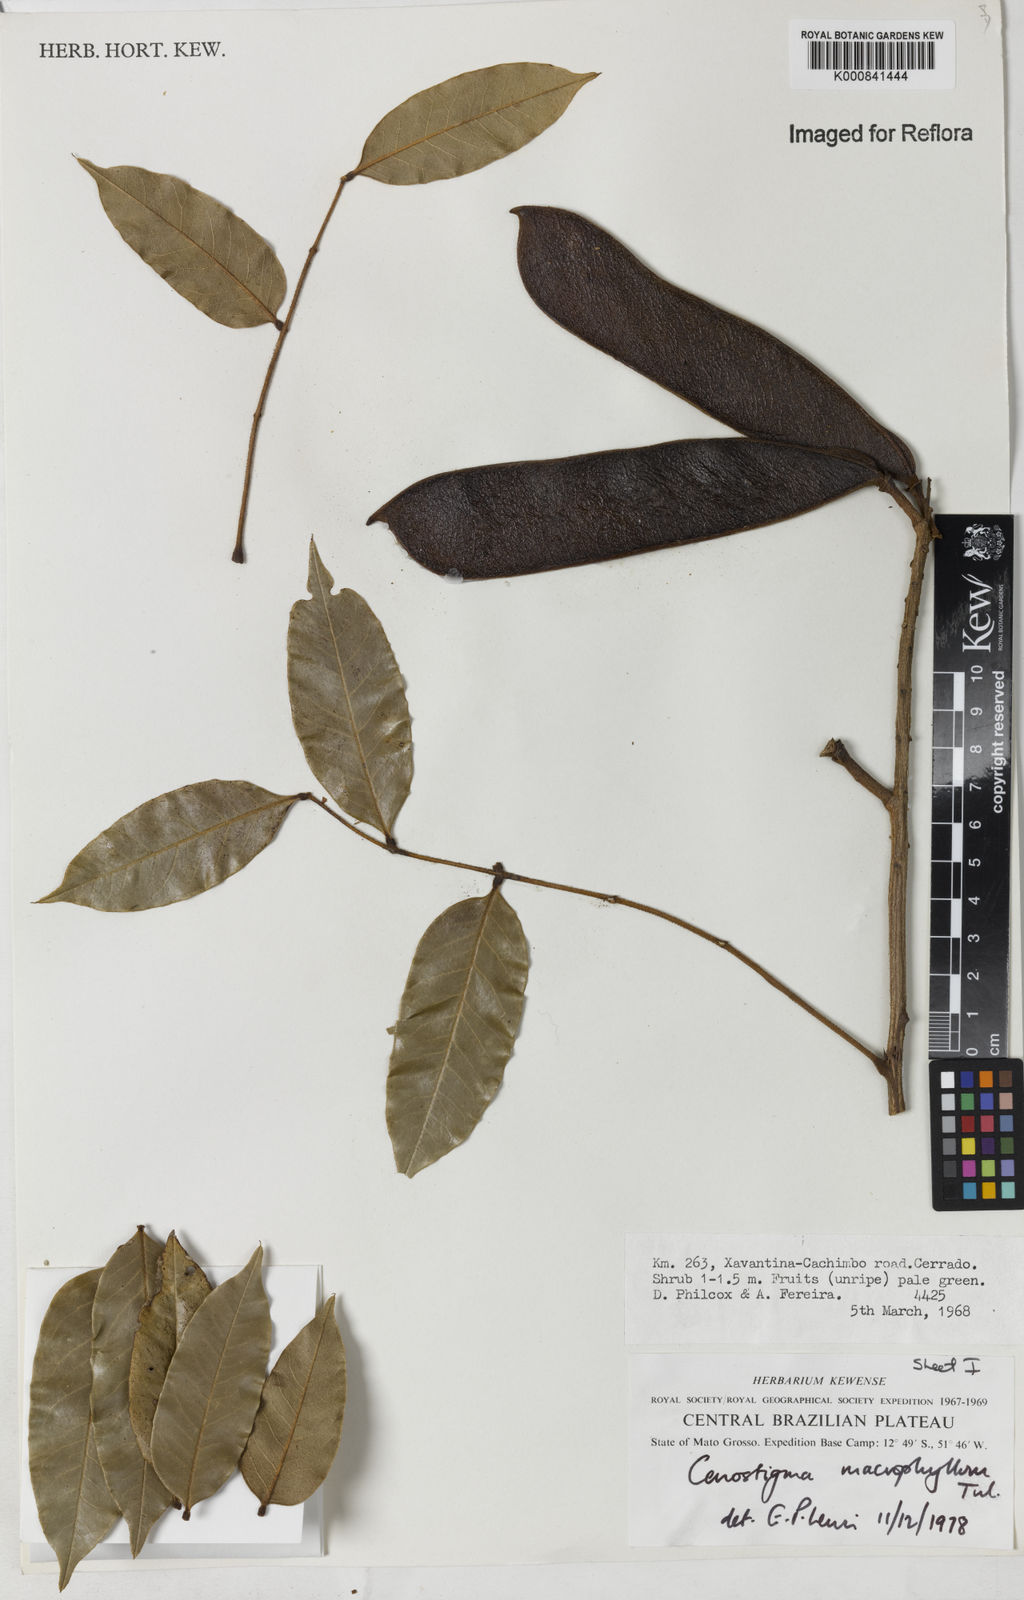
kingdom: Plantae
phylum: Tracheophyta
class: Magnoliopsida
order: Fabales
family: Fabaceae
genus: Cenostigma
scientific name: Cenostigma macrophyllum
